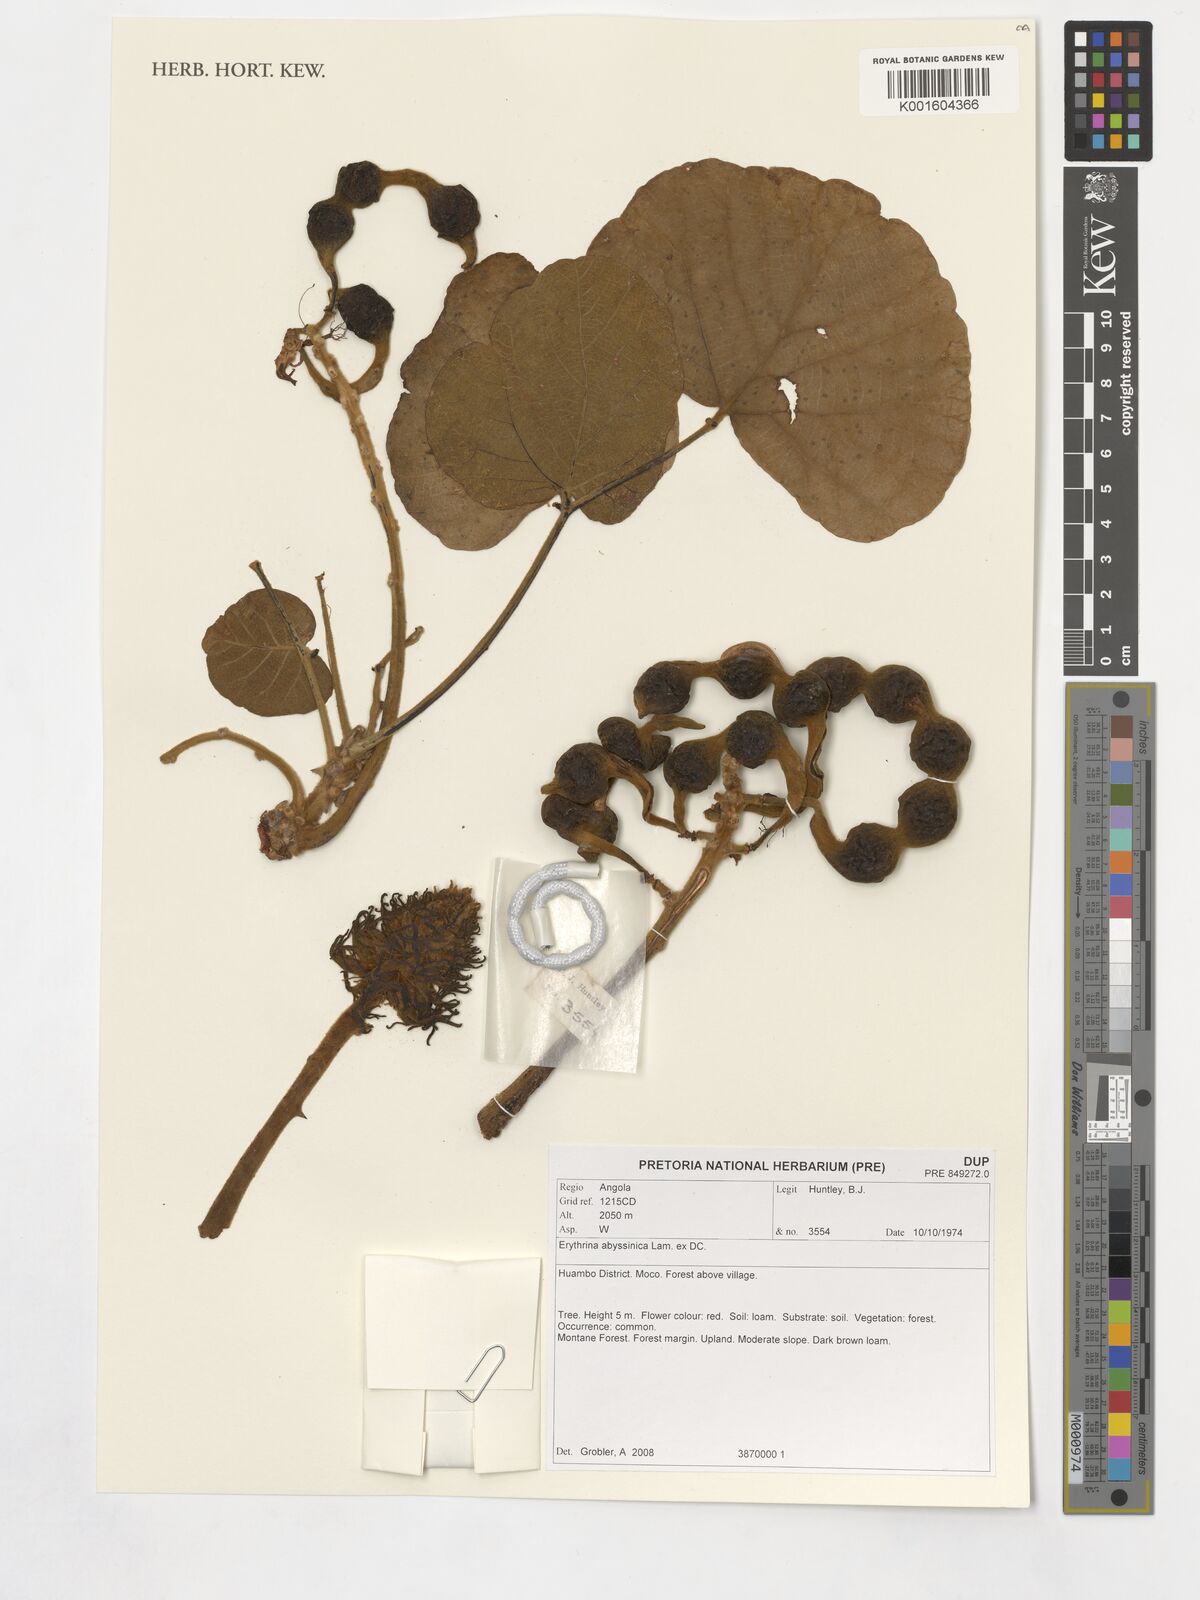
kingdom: Plantae
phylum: Tracheophyta
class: Magnoliopsida
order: Fabales
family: Fabaceae
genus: Erythrina
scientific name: Erythrina abyssinica
